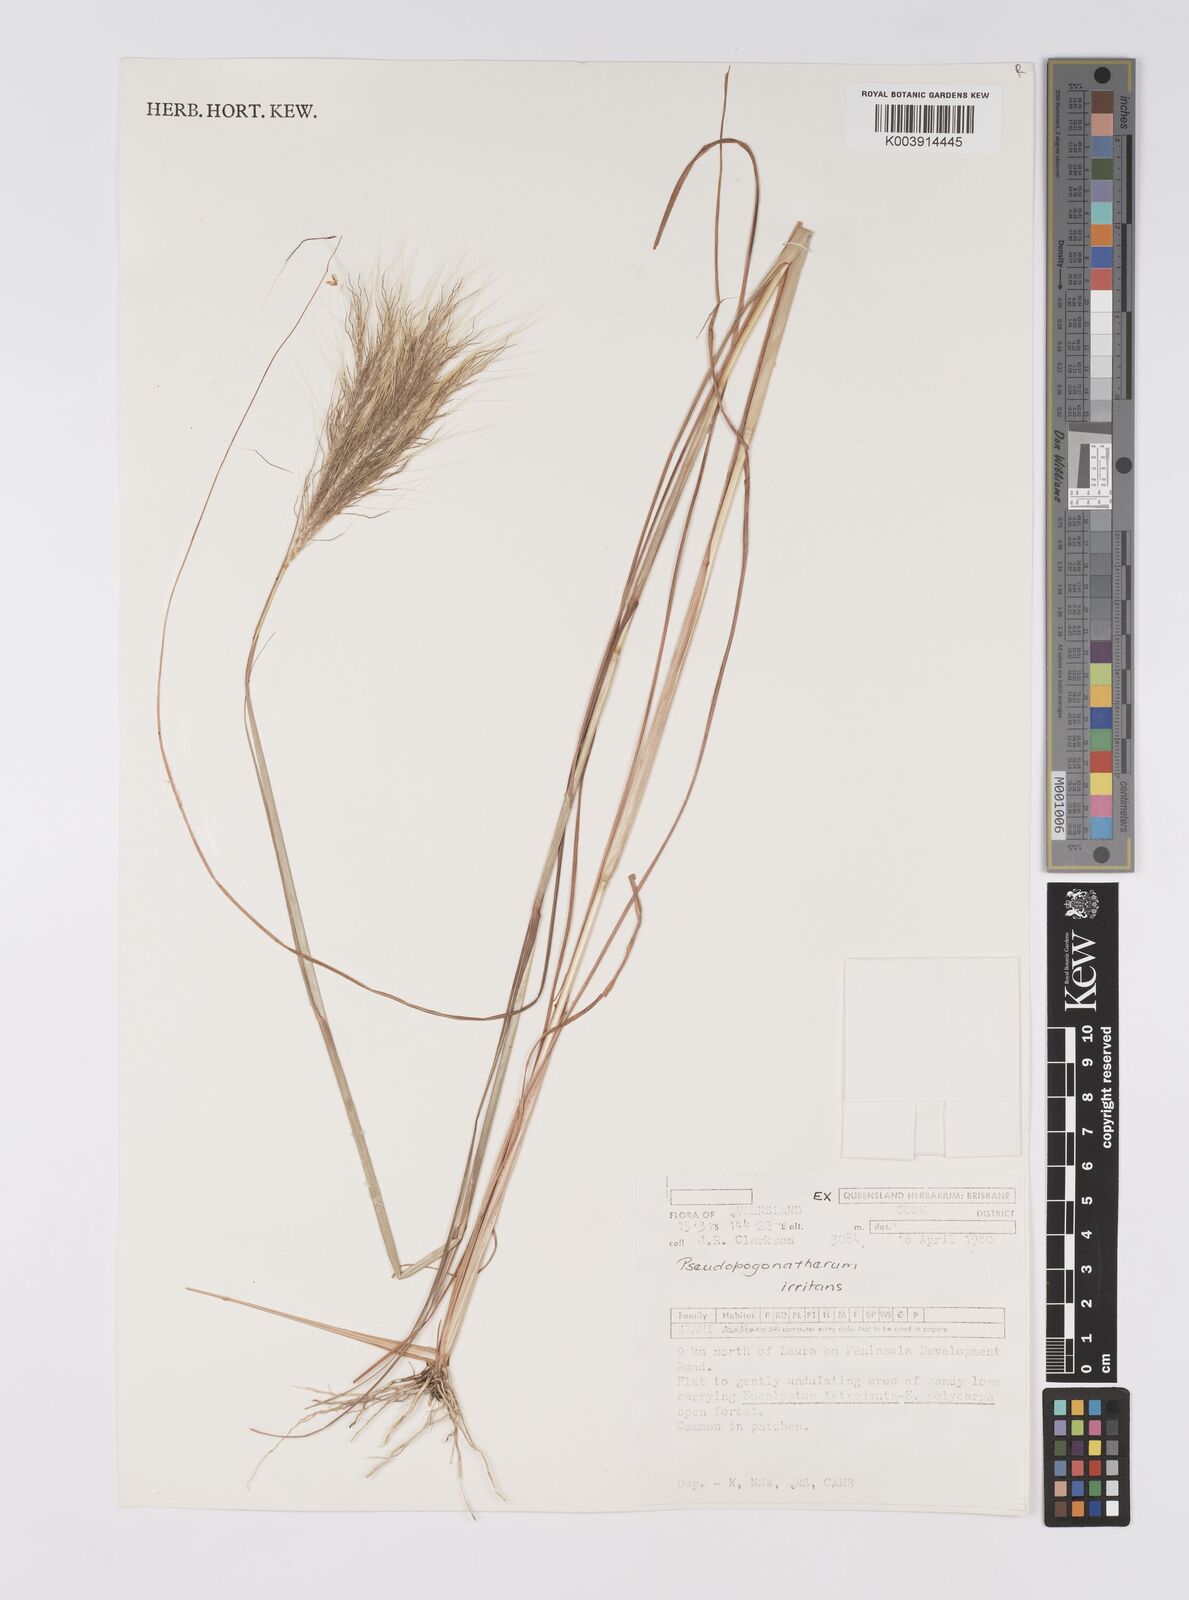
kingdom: Plantae
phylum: Tracheophyta
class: Liliopsida
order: Poales
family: Poaceae
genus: Pseudopogonatherum
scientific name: Pseudopogonatherum irritans
